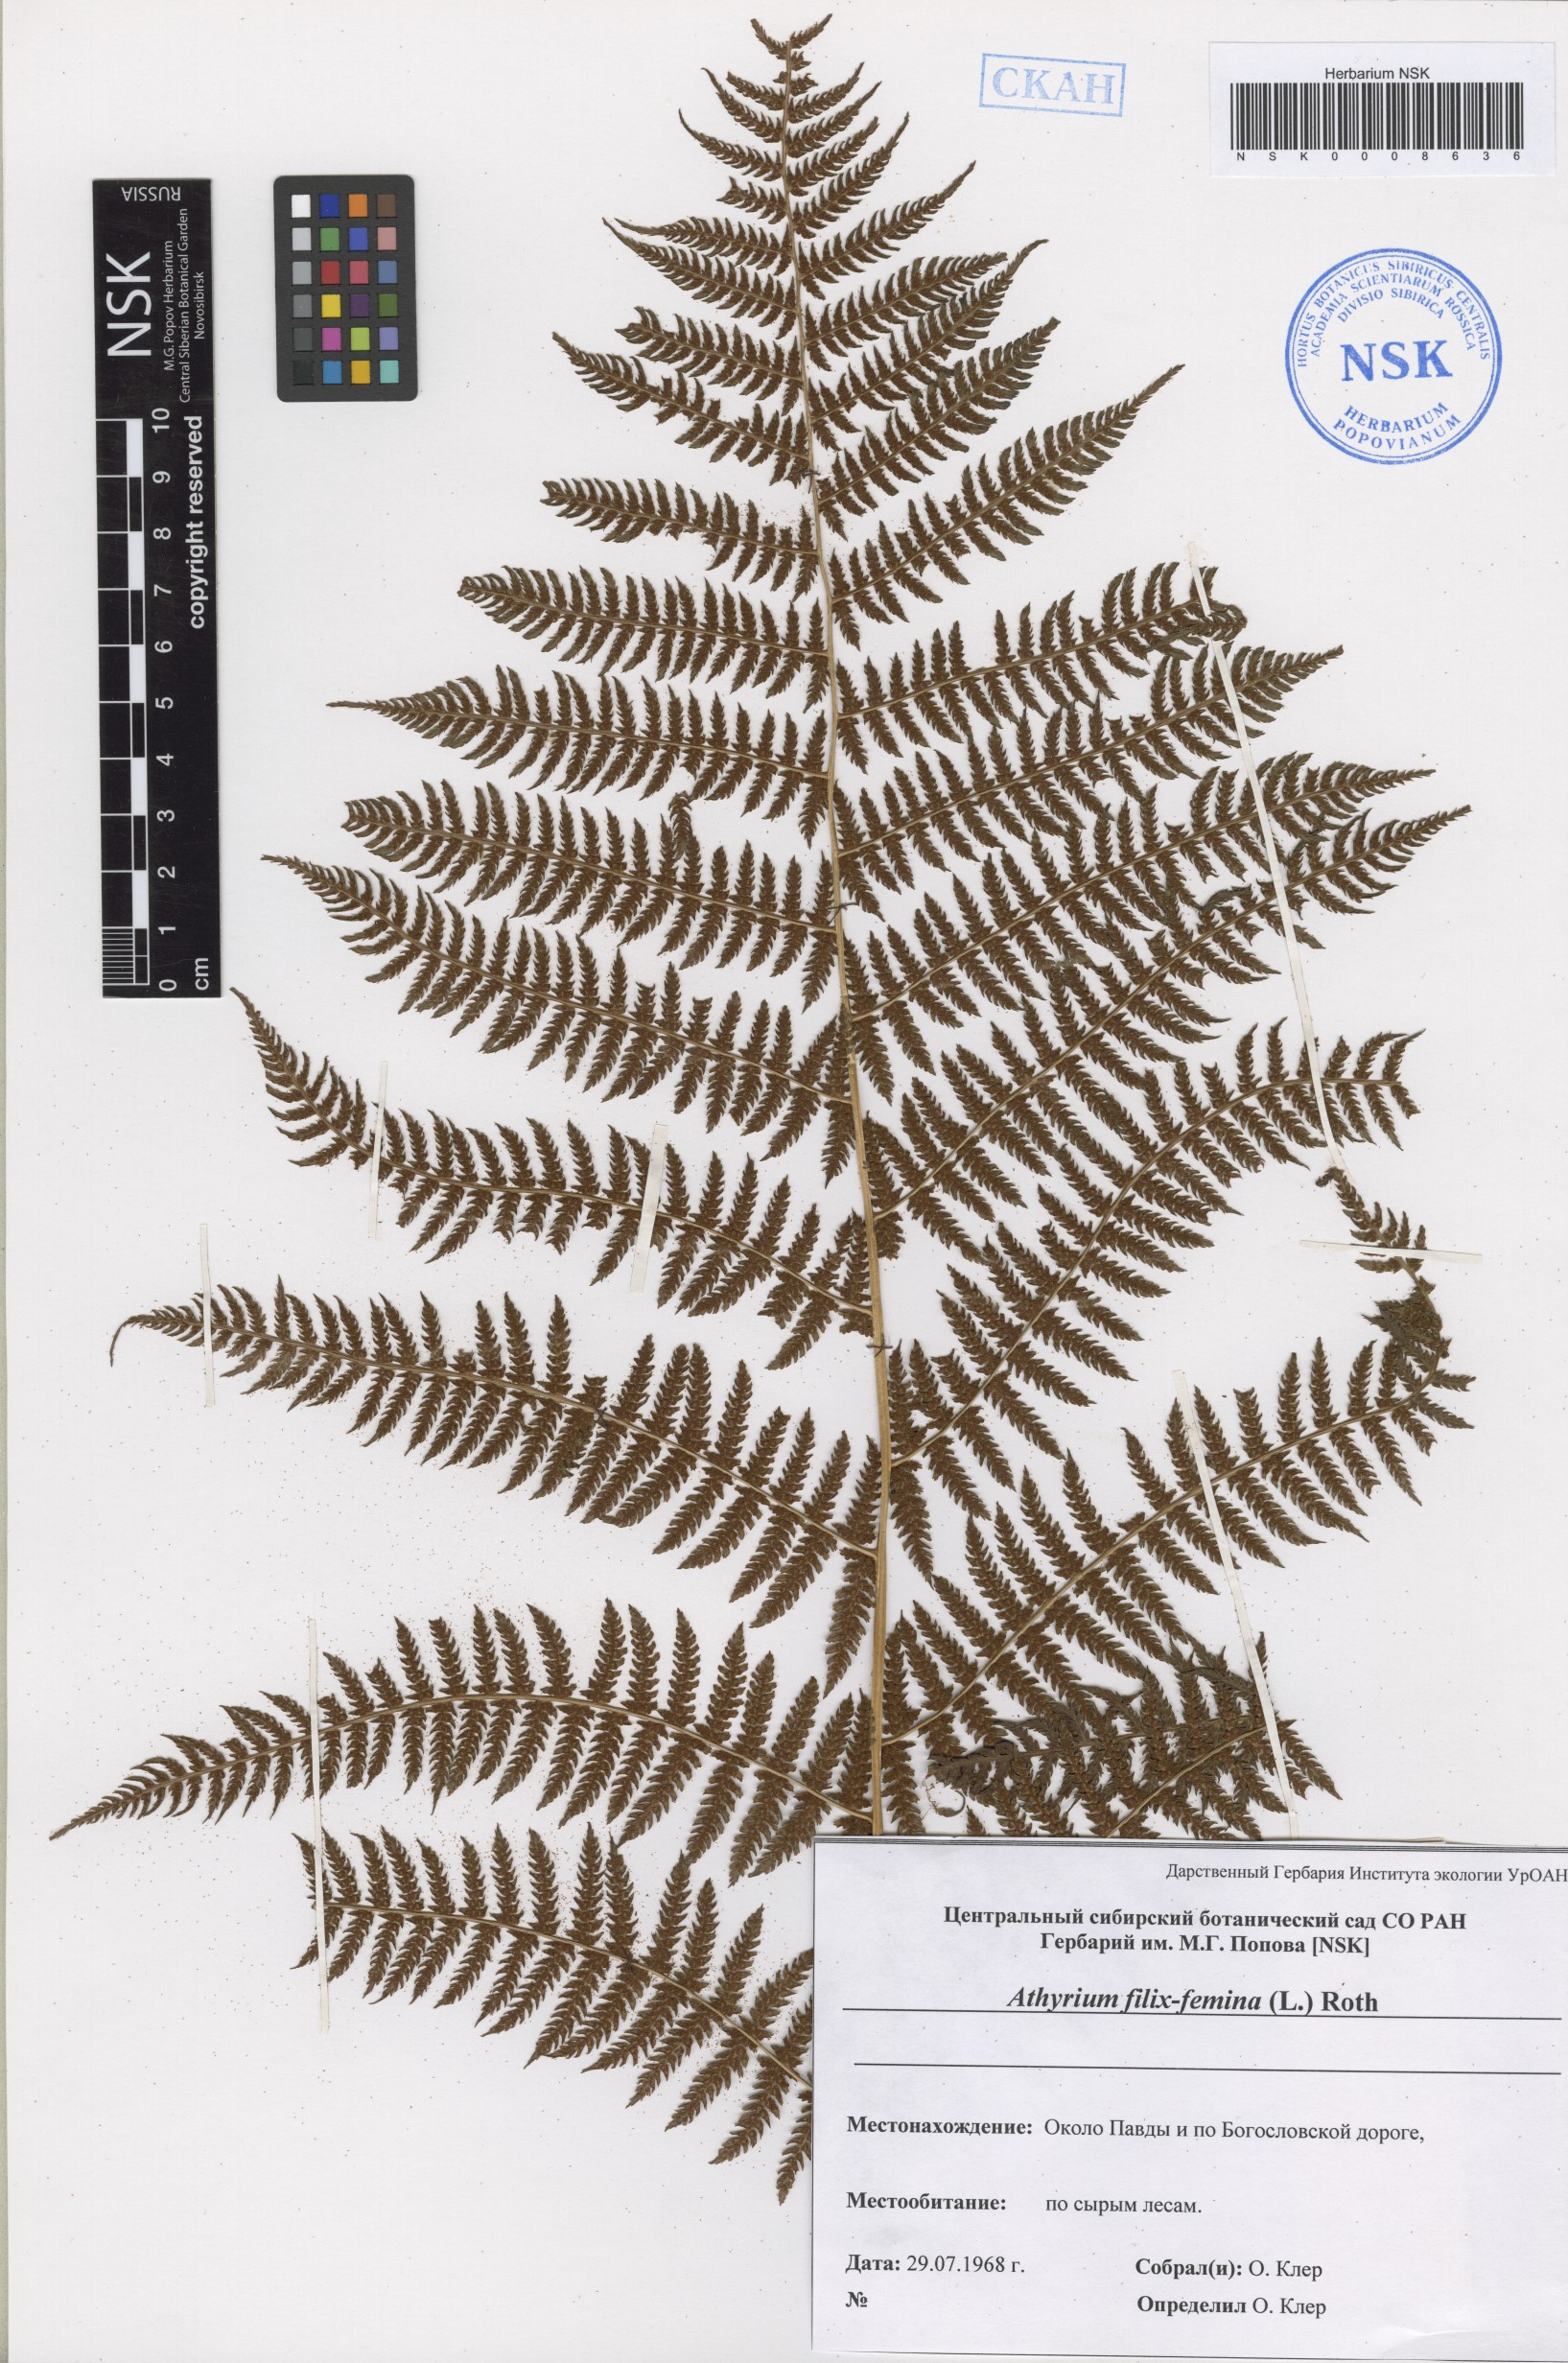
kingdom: Plantae
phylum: Tracheophyta
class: Polypodiopsida
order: Polypodiales
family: Athyriaceae
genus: Athyrium
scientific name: Athyrium filix-femina
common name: Lady fern
